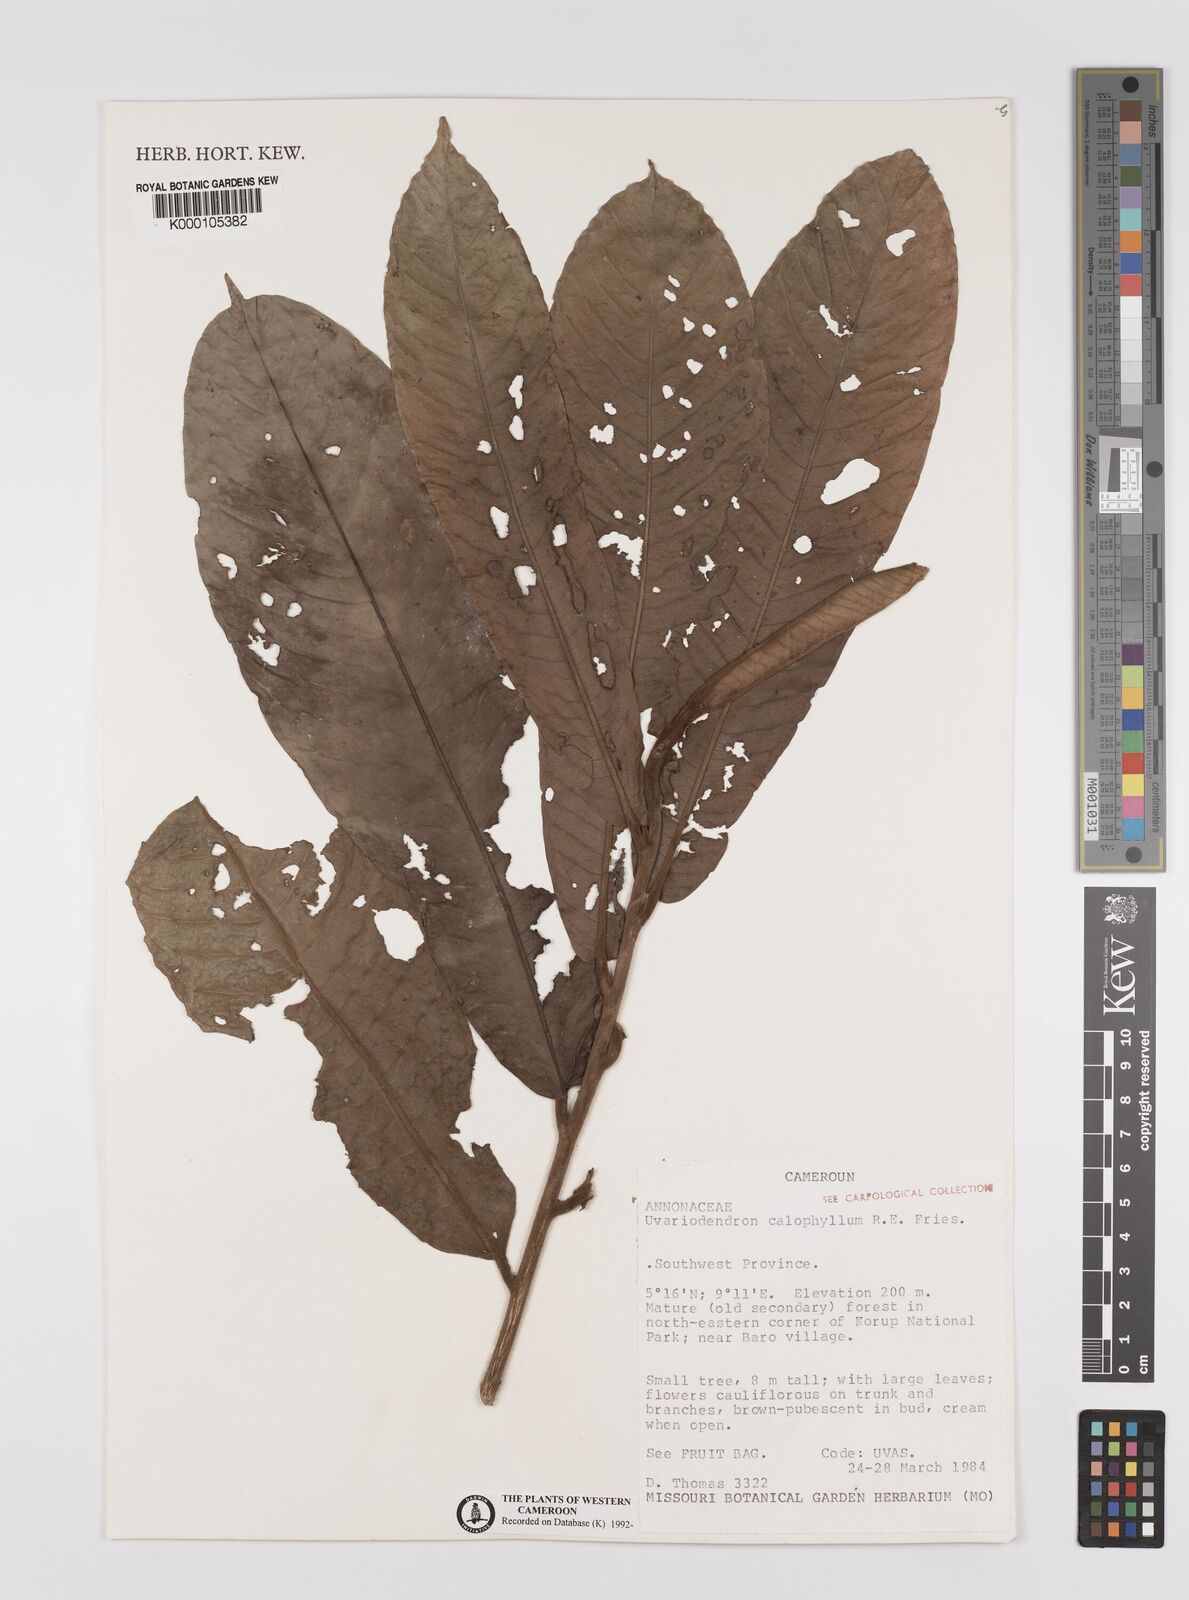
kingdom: Plantae
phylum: Tracheophyta
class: Magnoliopsida
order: Magnoliales
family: Annonaceae
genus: Uvariodendron
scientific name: Uvariodendron calophyllum
